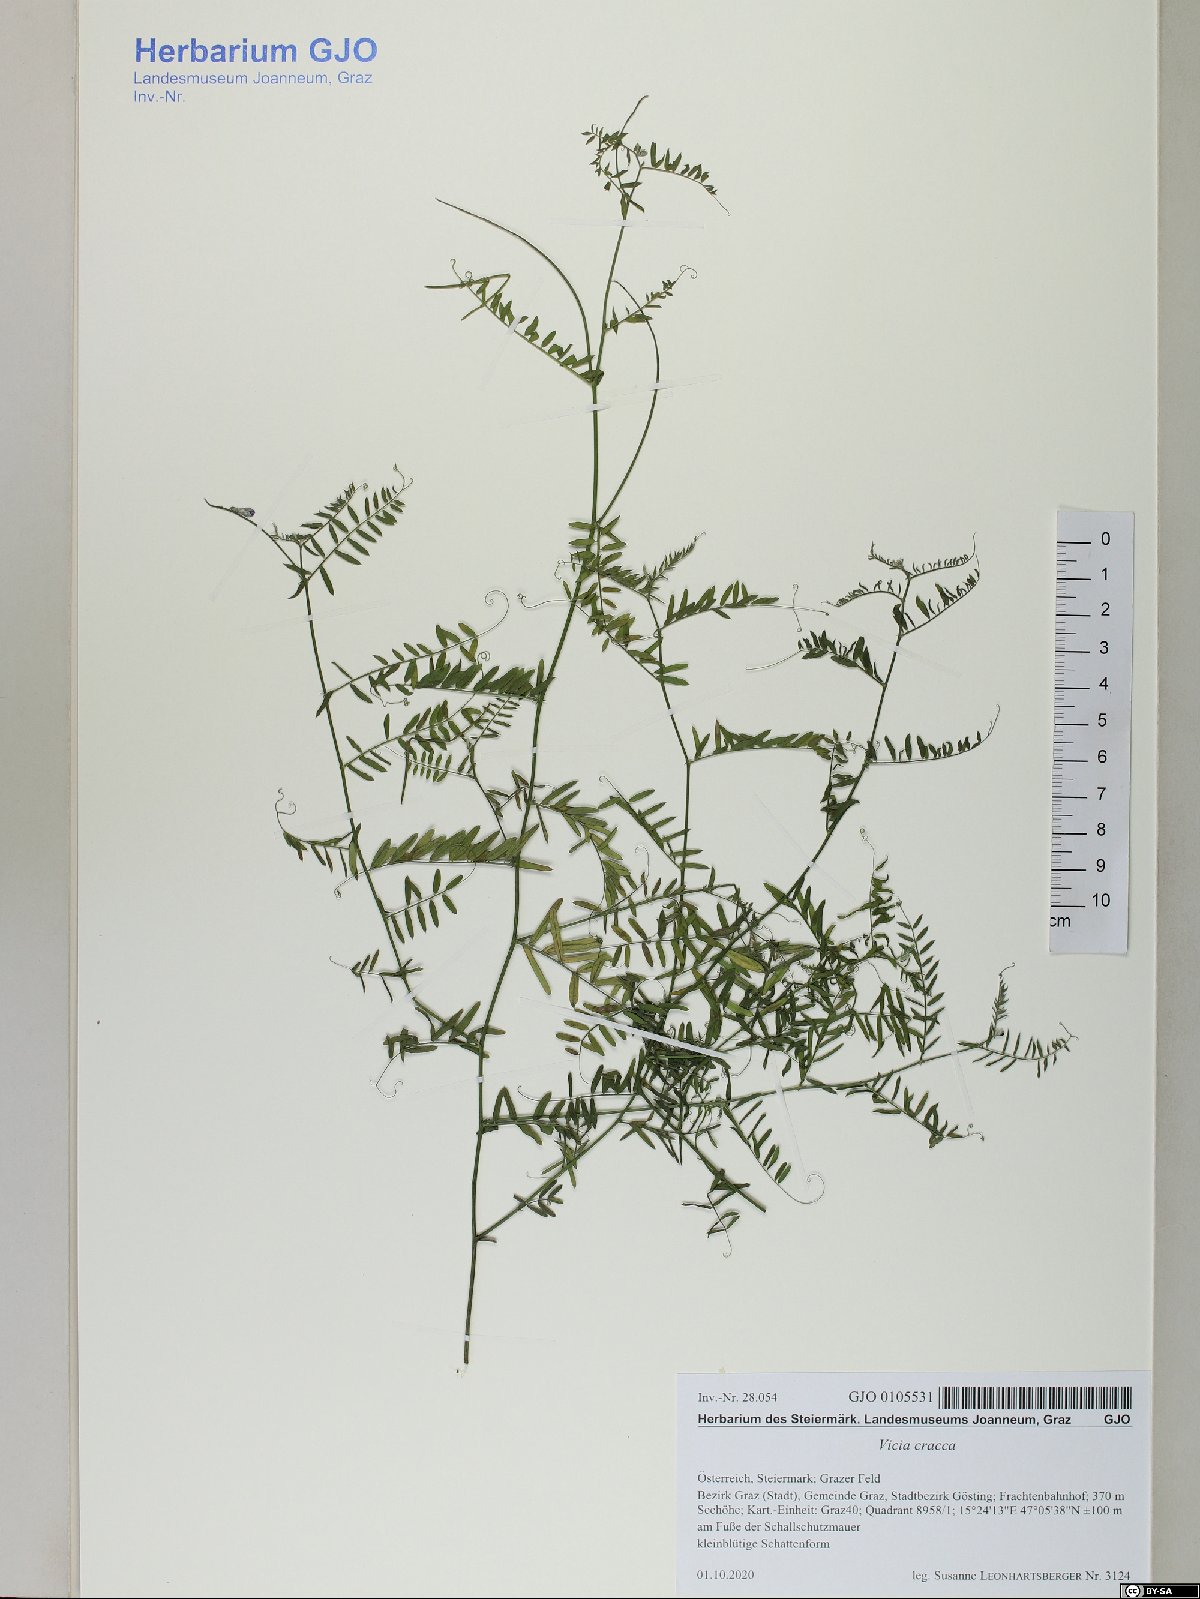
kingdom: Plantae
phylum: Tracheophyta
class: Magnoliopsida
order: Fabales
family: Fabaceae
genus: Vicia
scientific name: Vicia cracca
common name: Bird vetch
